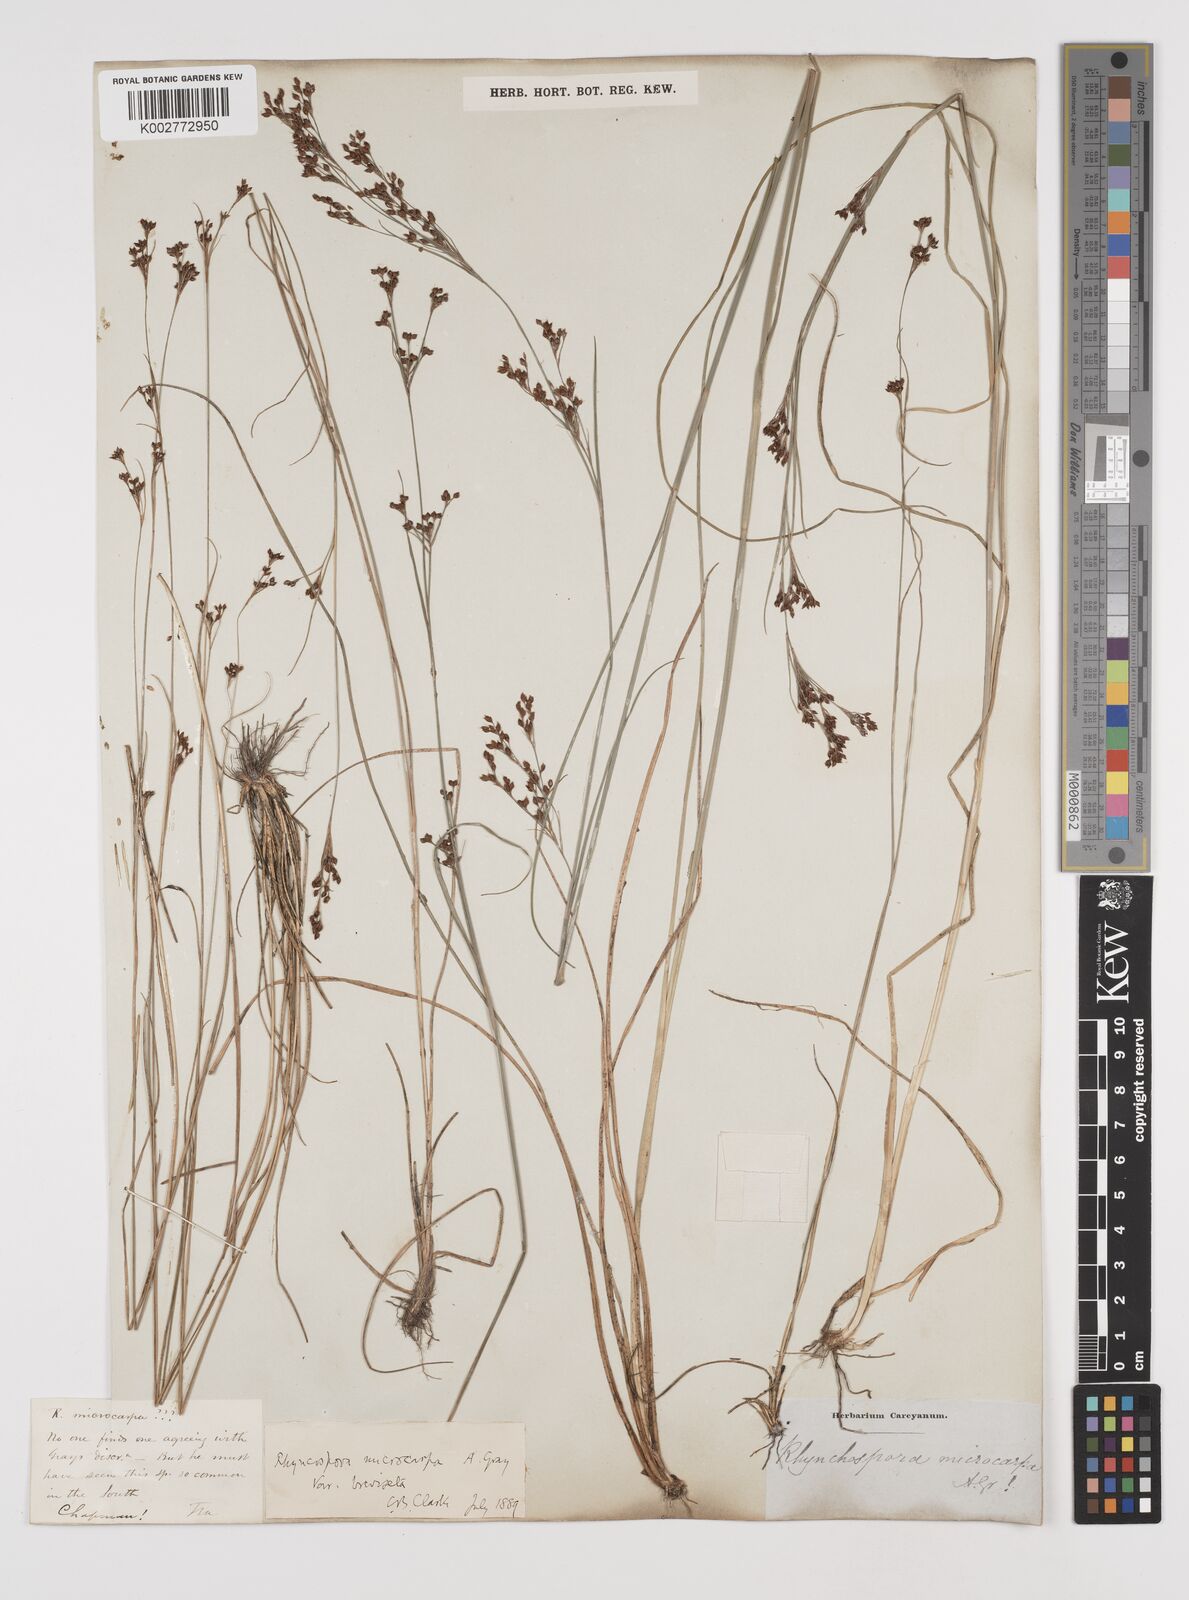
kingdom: Plantae
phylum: Tracheophyta
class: Liliopsida
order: Poales
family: Cyperaceae
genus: Rhynchospora
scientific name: Rhynchospora microcarpa
